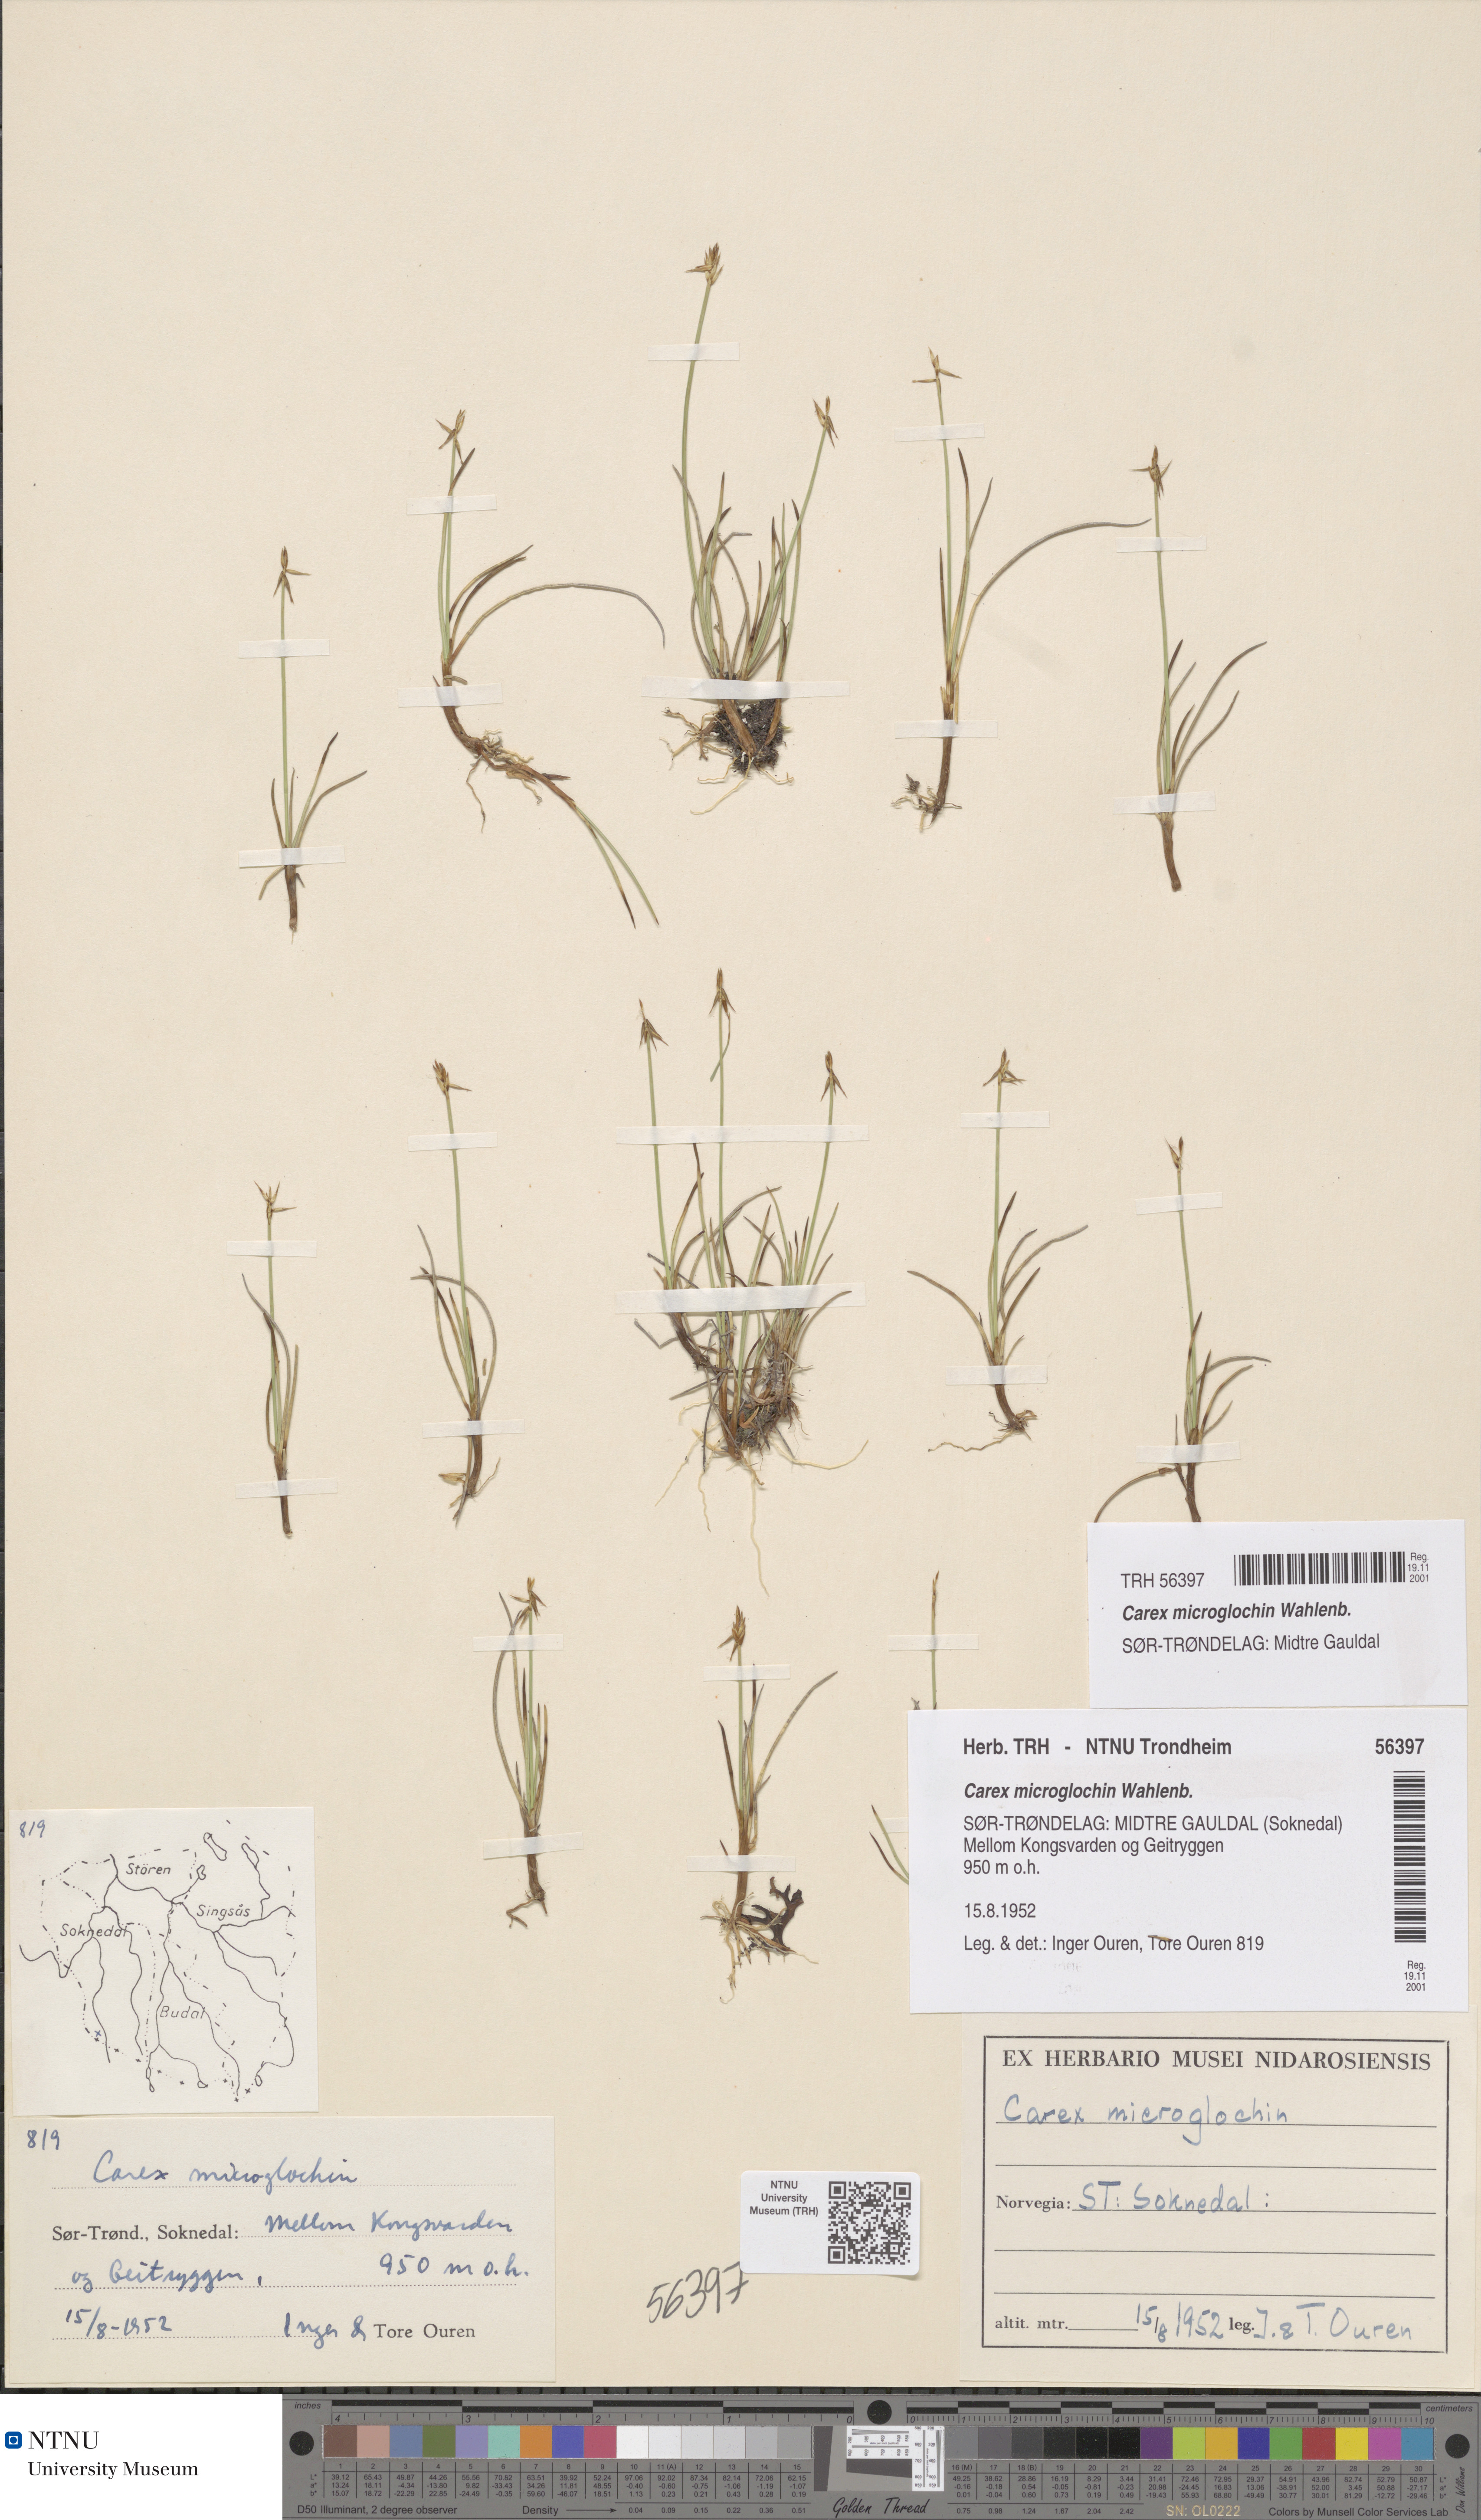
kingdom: Plantae
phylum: Tracheophyta
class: Liliopsida
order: Poales
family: Cyperaceae
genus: Carex
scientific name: Carex microglochin
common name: Bristle sedge
